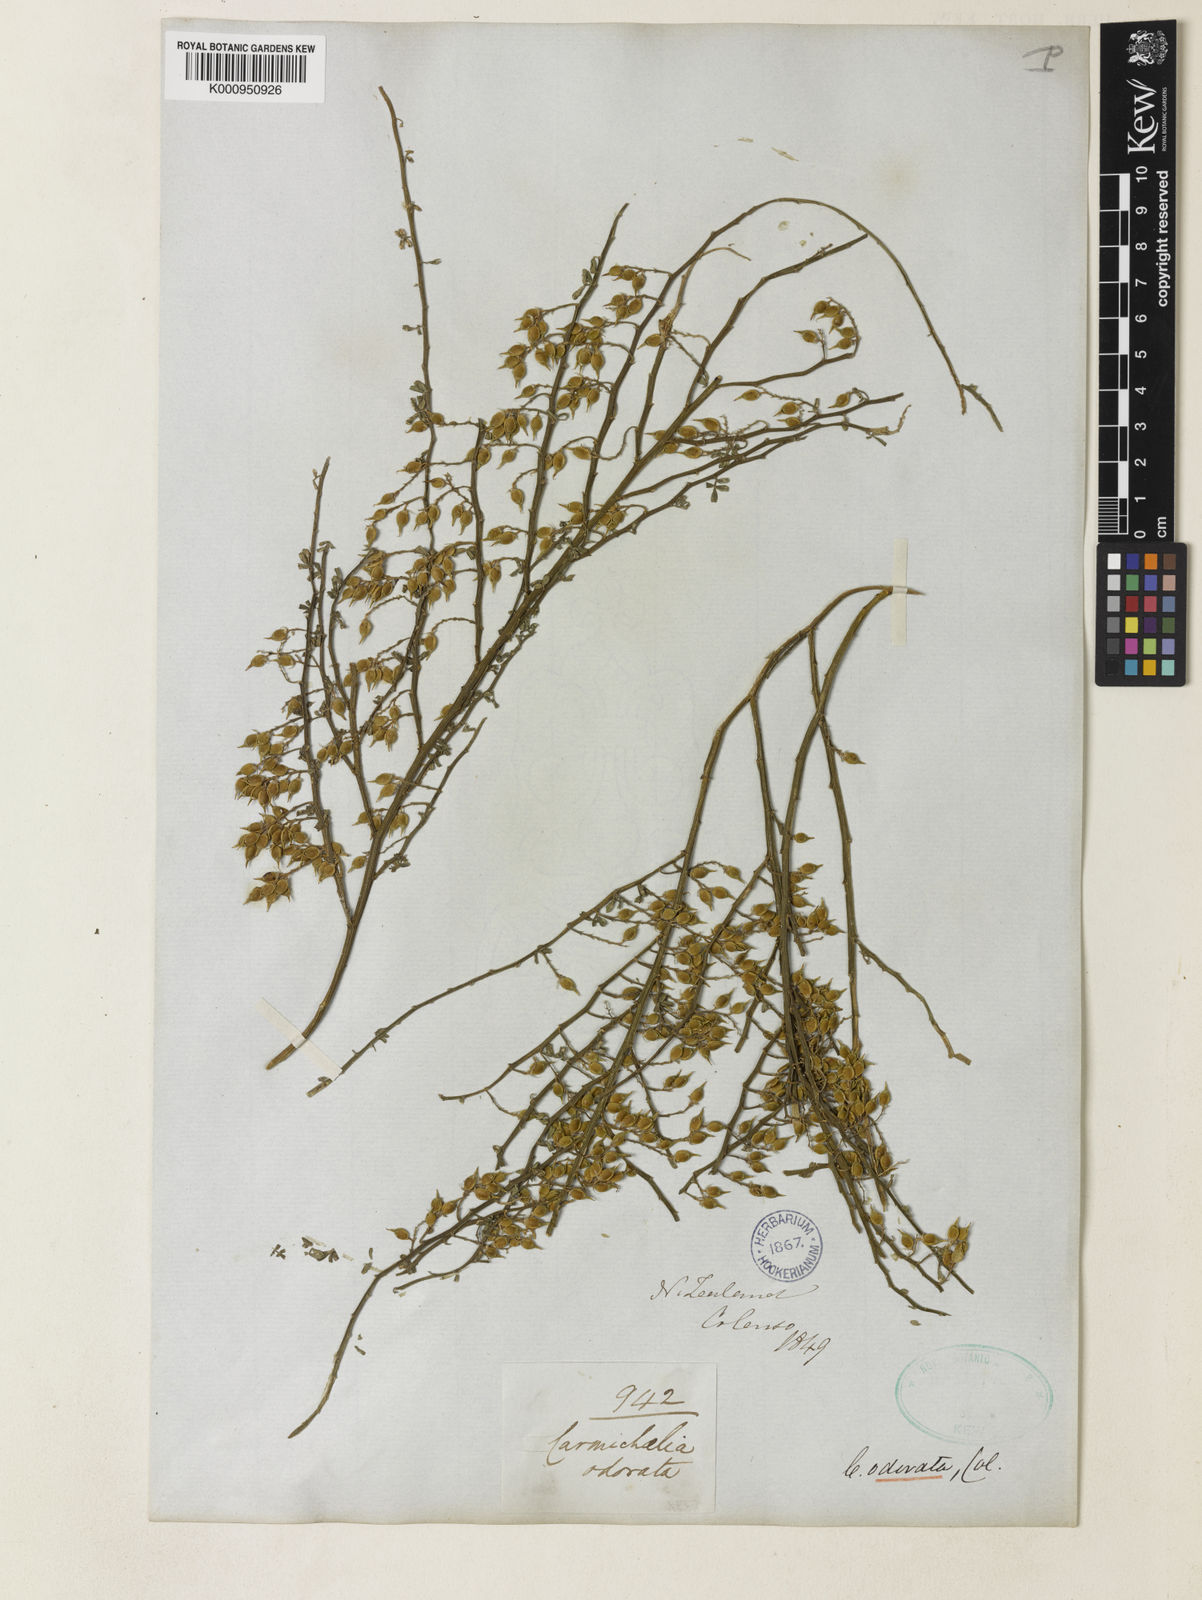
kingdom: Plantae
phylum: Tracheophyta
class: Magnoliopsida
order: Fabales
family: Fabaceae
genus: Carmichaelia
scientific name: Carmichaelia odorata
